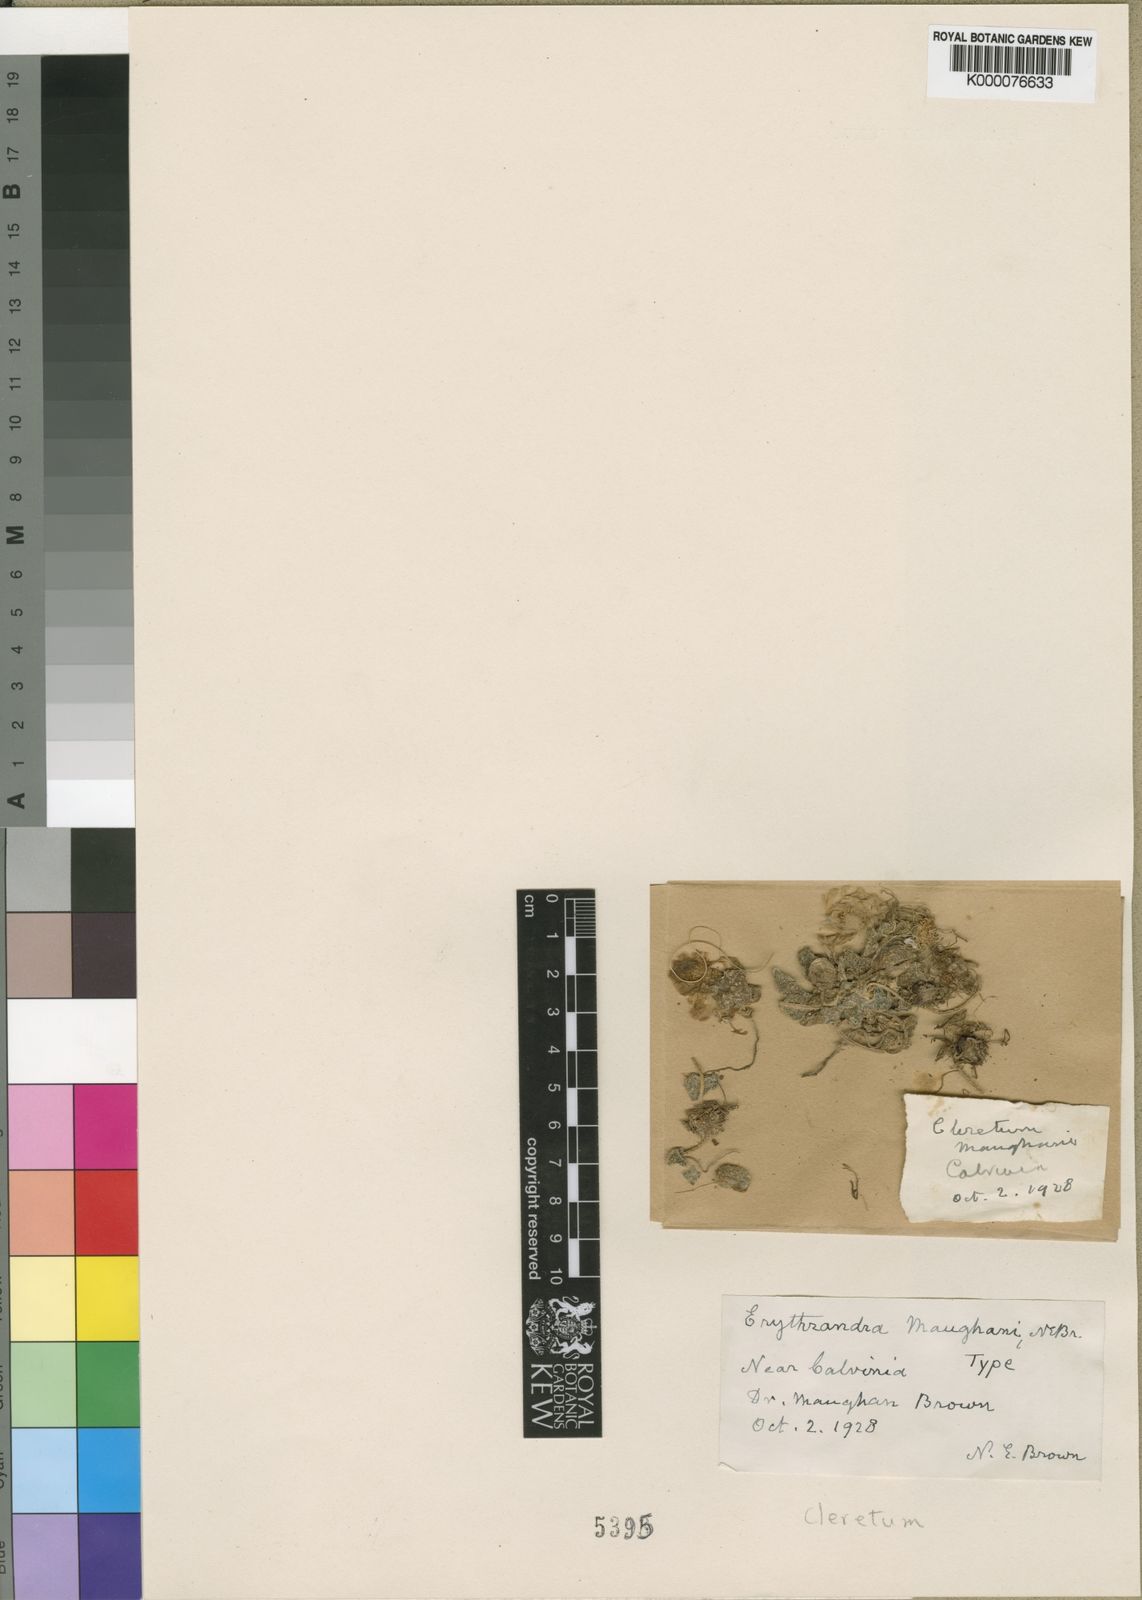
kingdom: Plantae
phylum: Tracheophyta
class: Magnoliopsida
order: Caryophyllales
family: Aizoaceae
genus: Cleretum
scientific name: Cleretum maughanii
